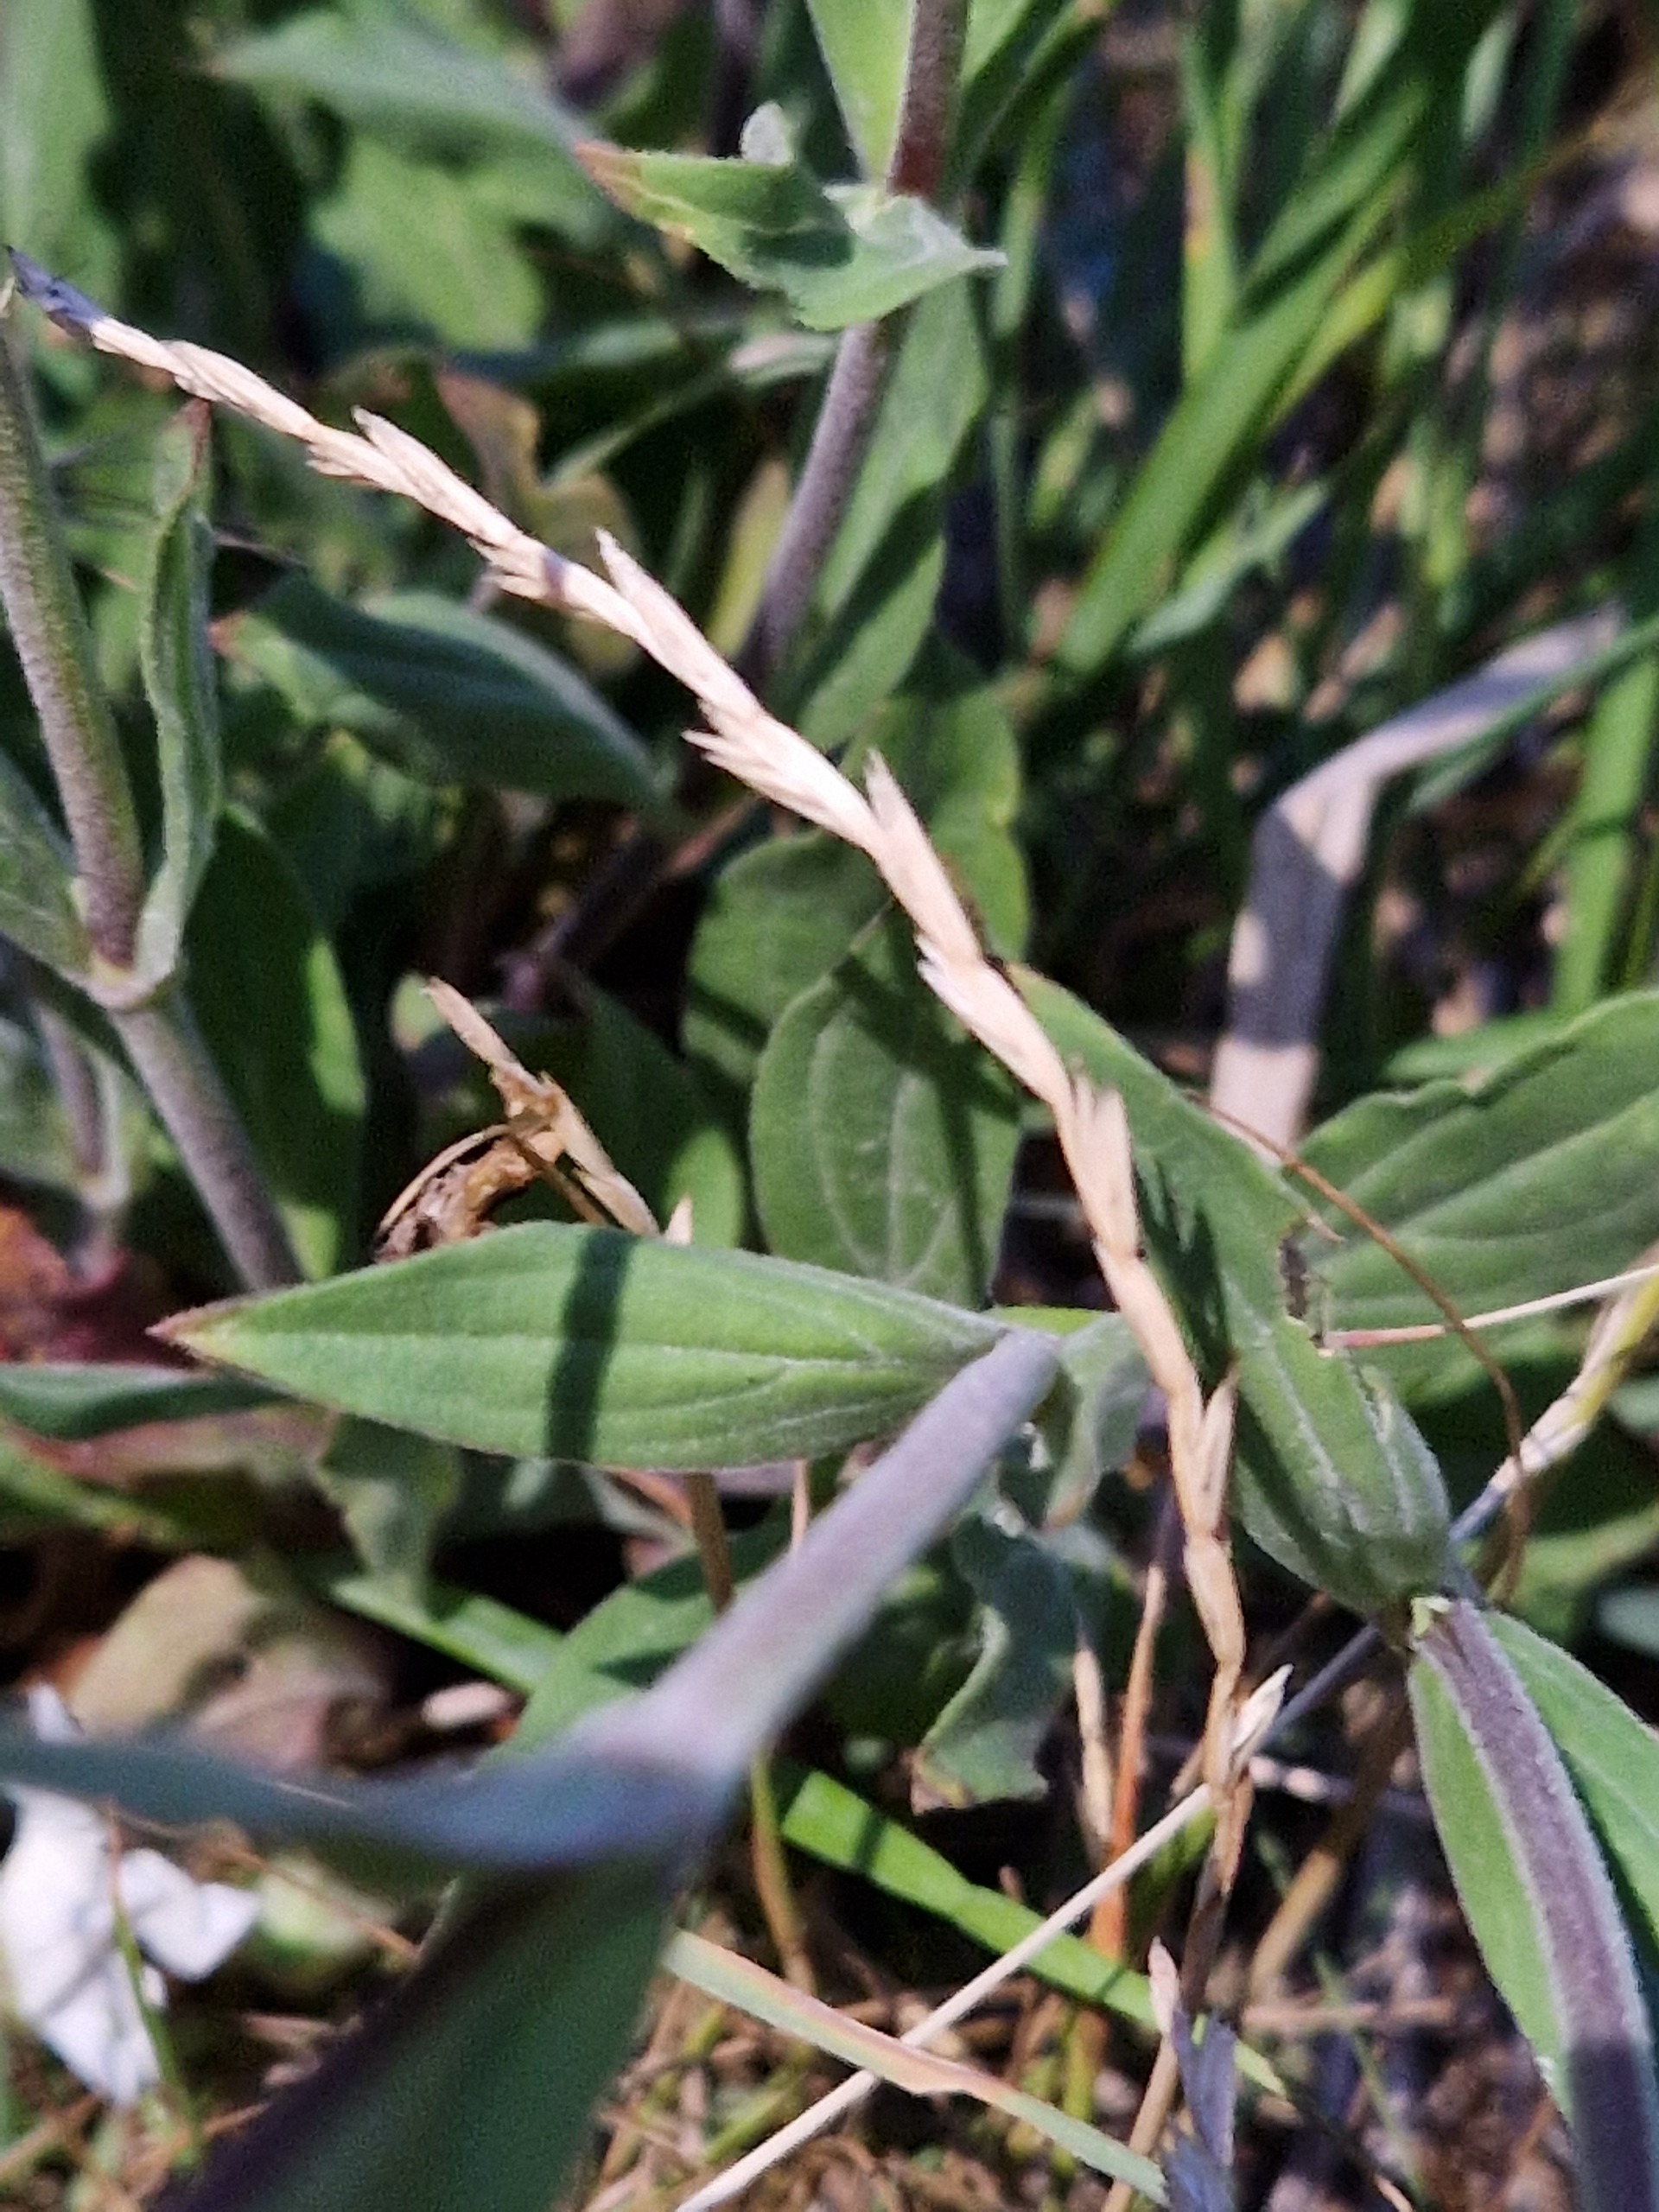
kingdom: Plantae
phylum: Tracheophyta
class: Magnoliopsida
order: Caryophyllales
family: Caryophyllaceae
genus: Silene
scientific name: Silene latifolia
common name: Aftenpragtstjerne
